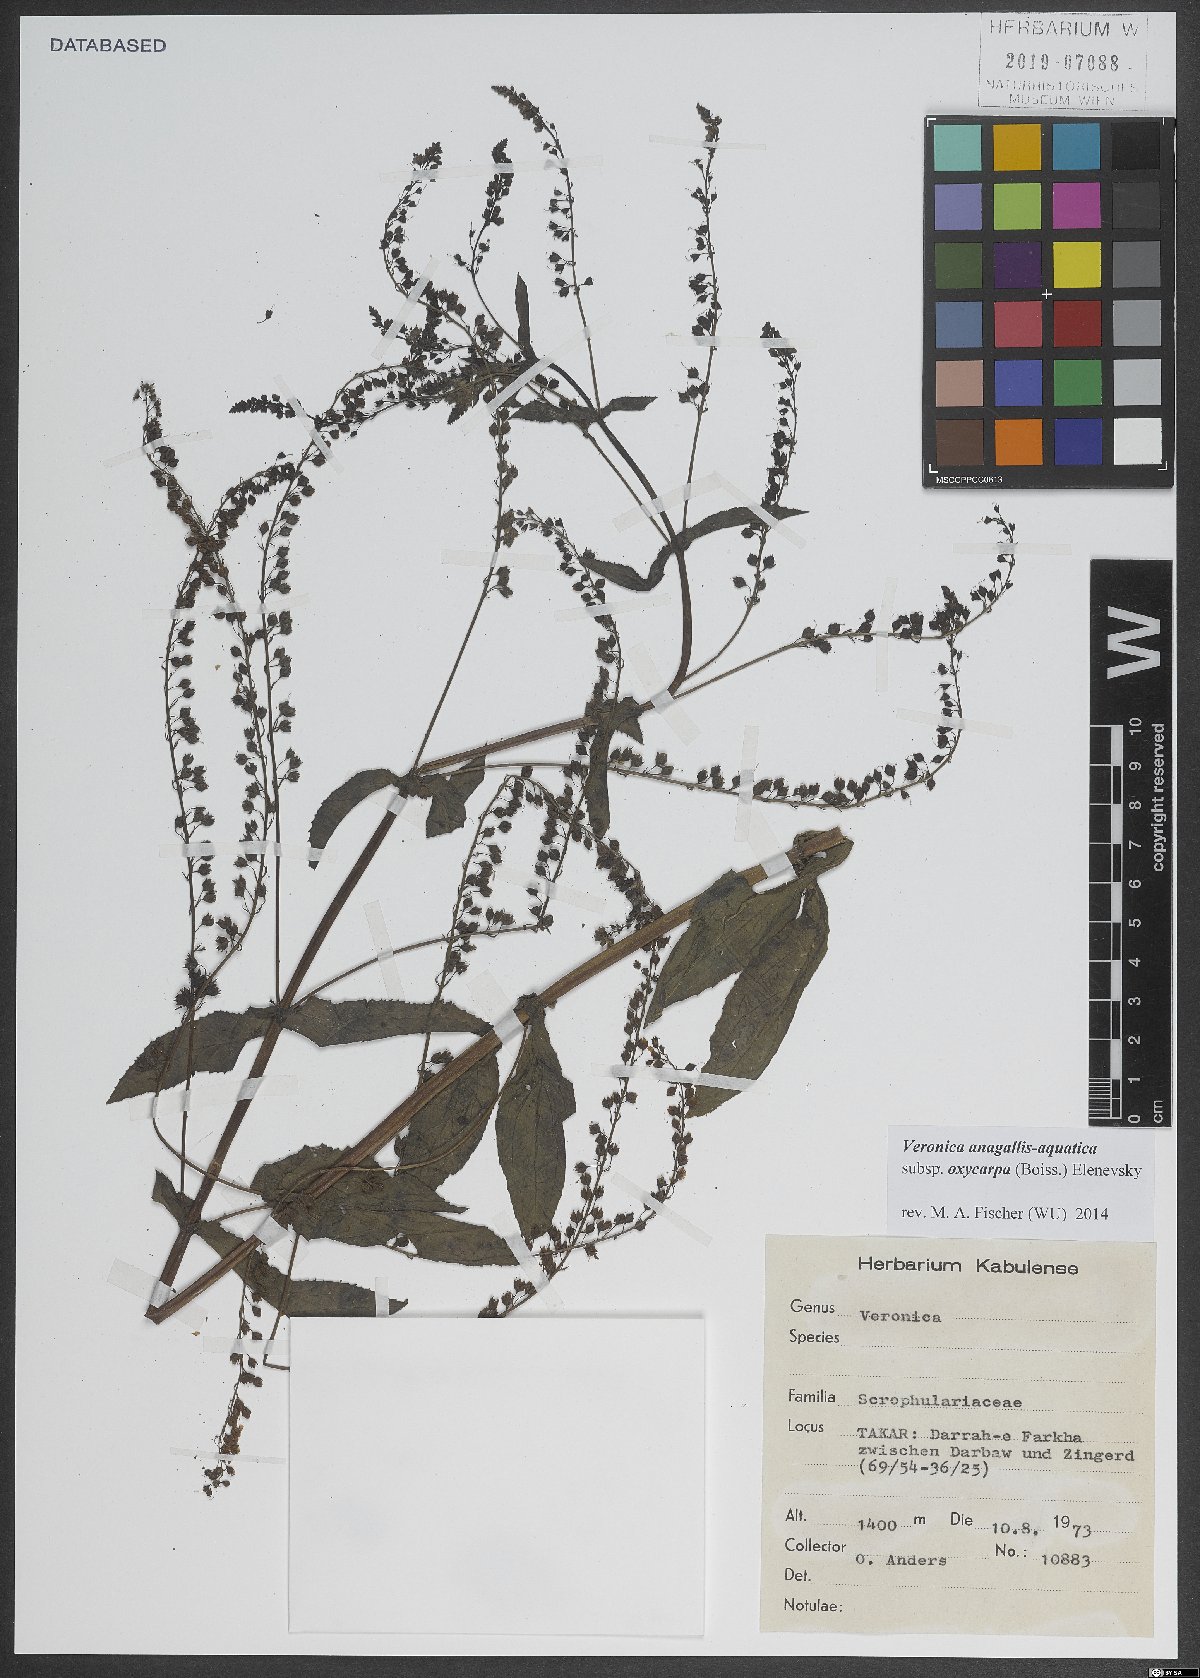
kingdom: Plantae
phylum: Tracheophyta
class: Magnoliopsida
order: Lamiales
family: Plantaginaceae
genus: Veronica
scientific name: Veronica oxycarpa
